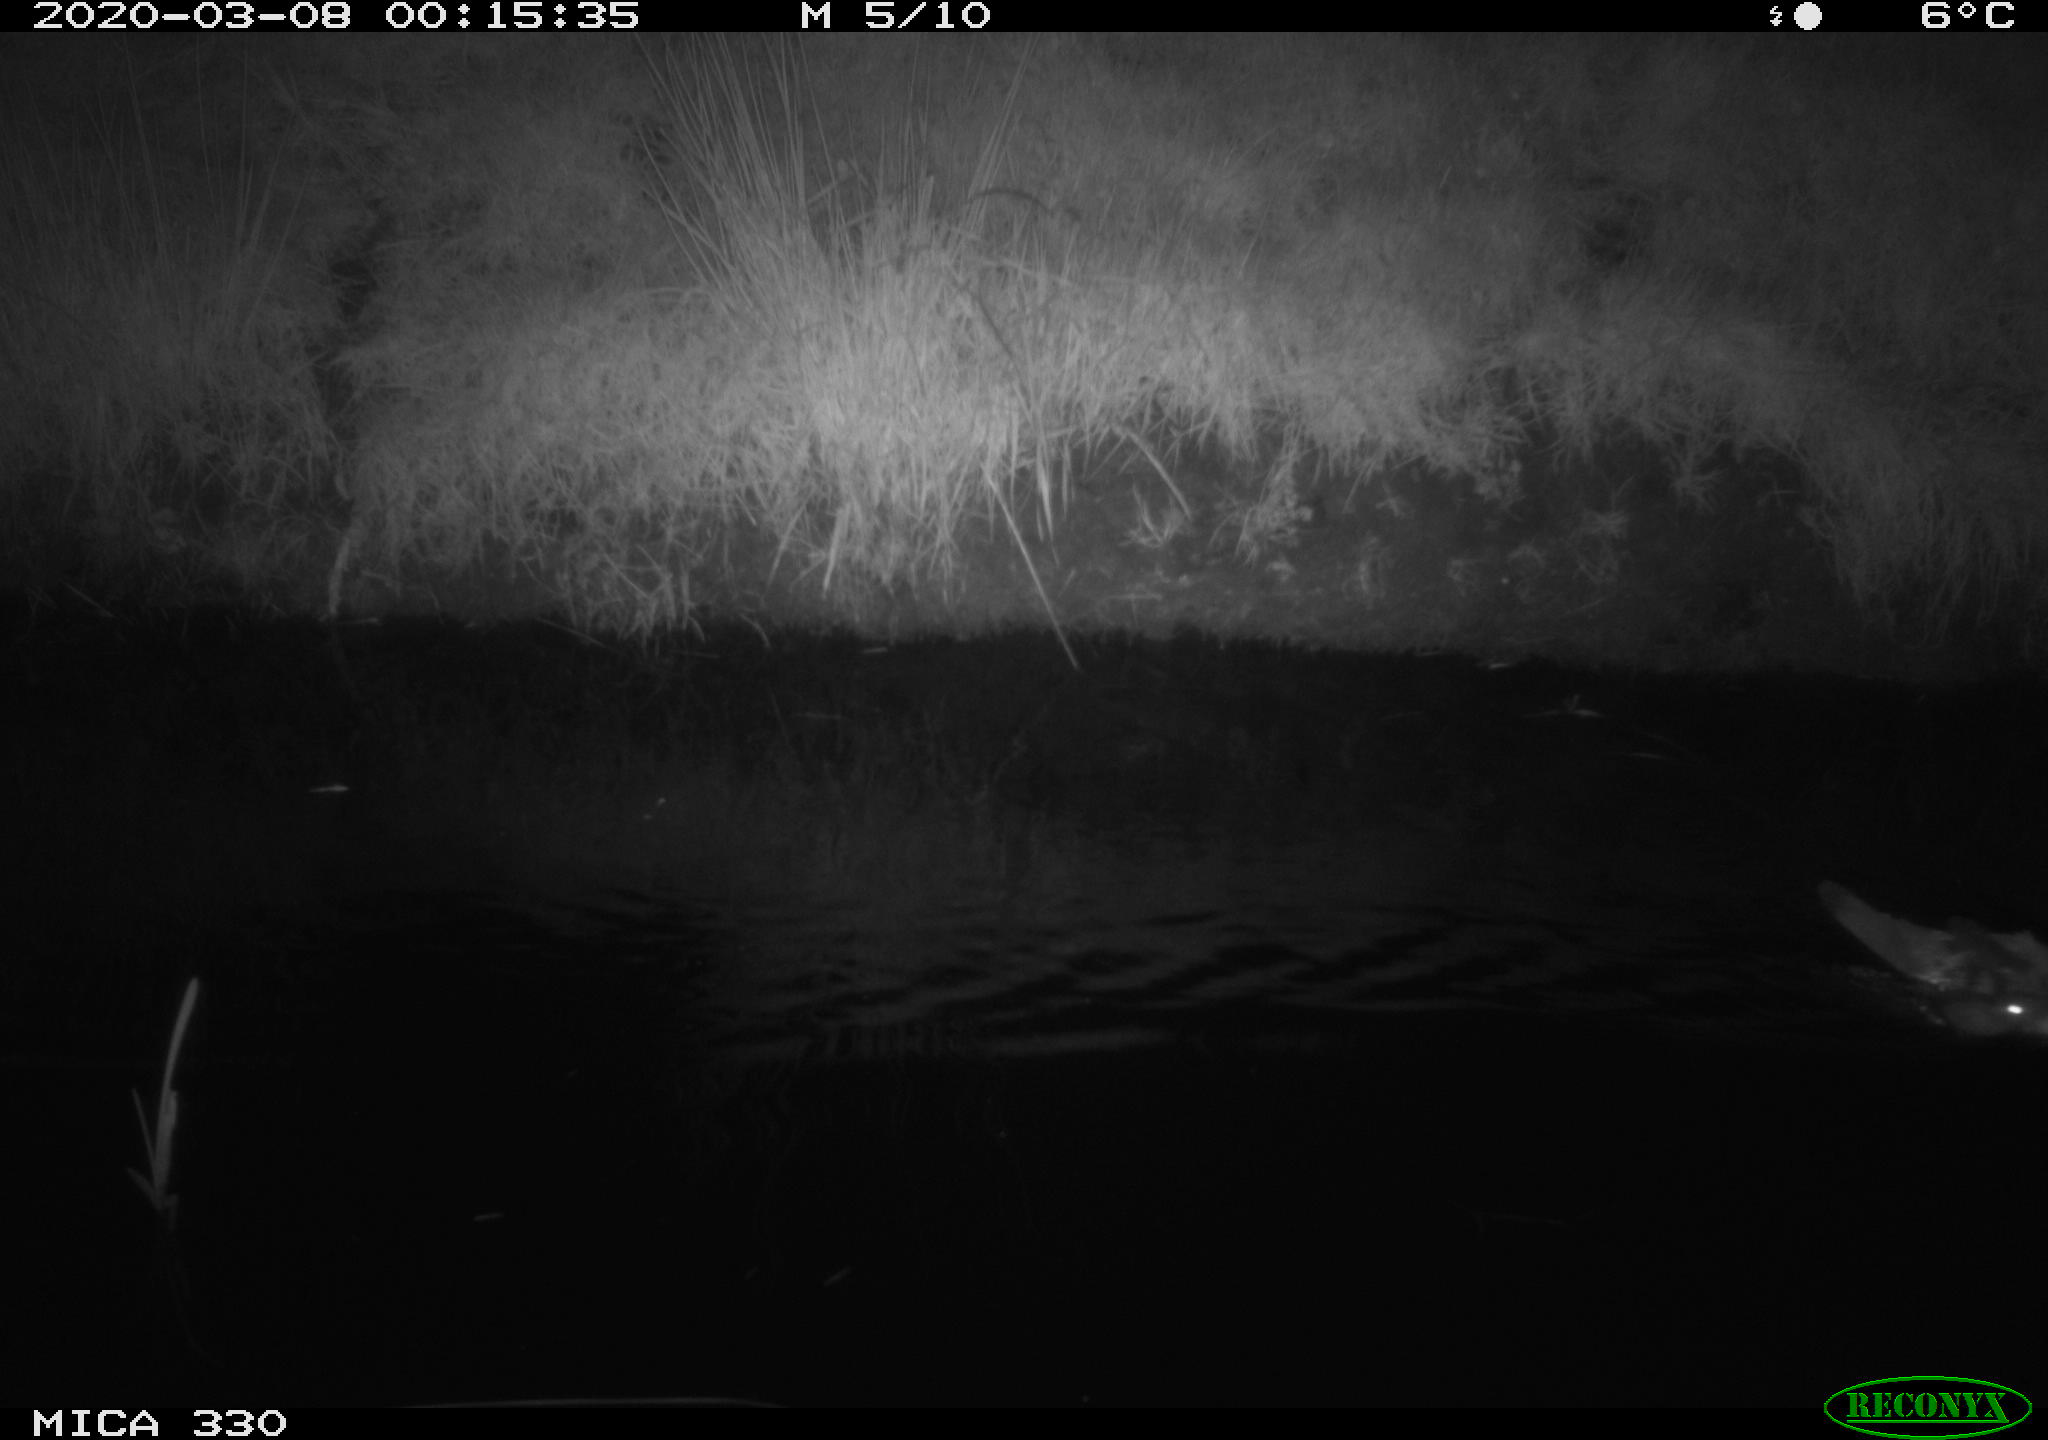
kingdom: Animalia
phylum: Chordata
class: Mammalia
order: Rodentia
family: Muridae
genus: Rattus
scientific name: Rattus norvegicus
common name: Brown rat
